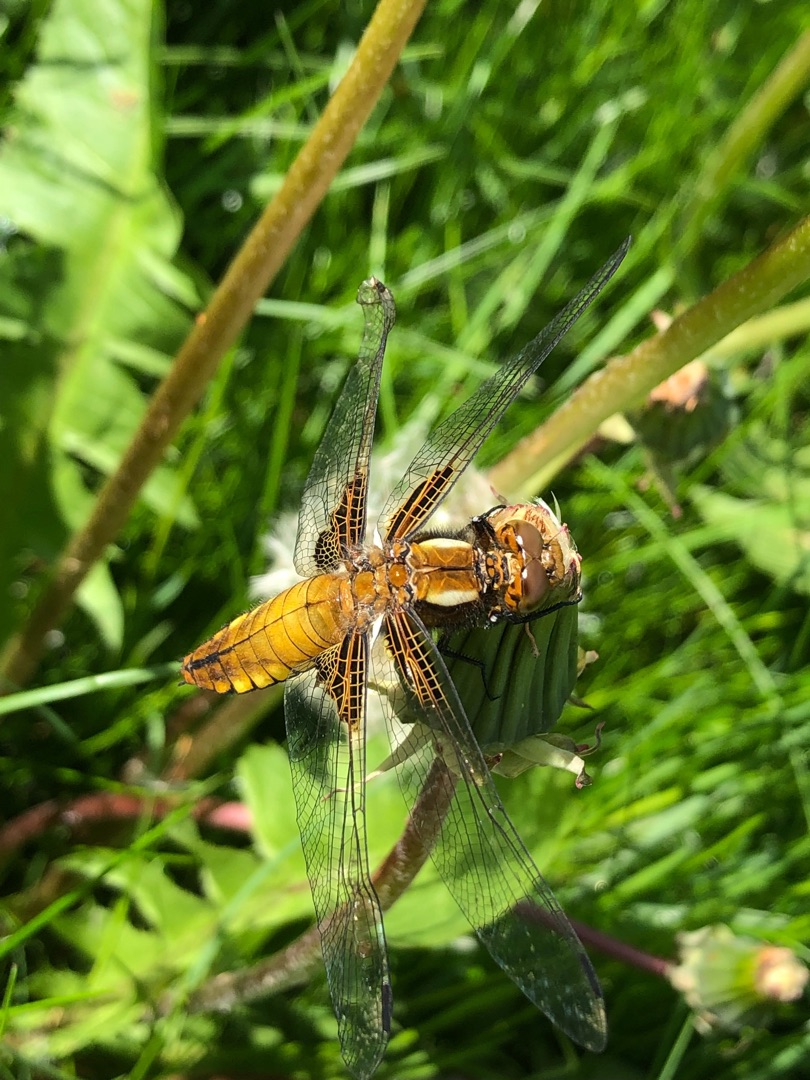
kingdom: Animalia
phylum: Arthropoda
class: Insecta
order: Odonata
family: Libellulidae
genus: Libellula
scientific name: Libellula depressa
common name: Blå libel
